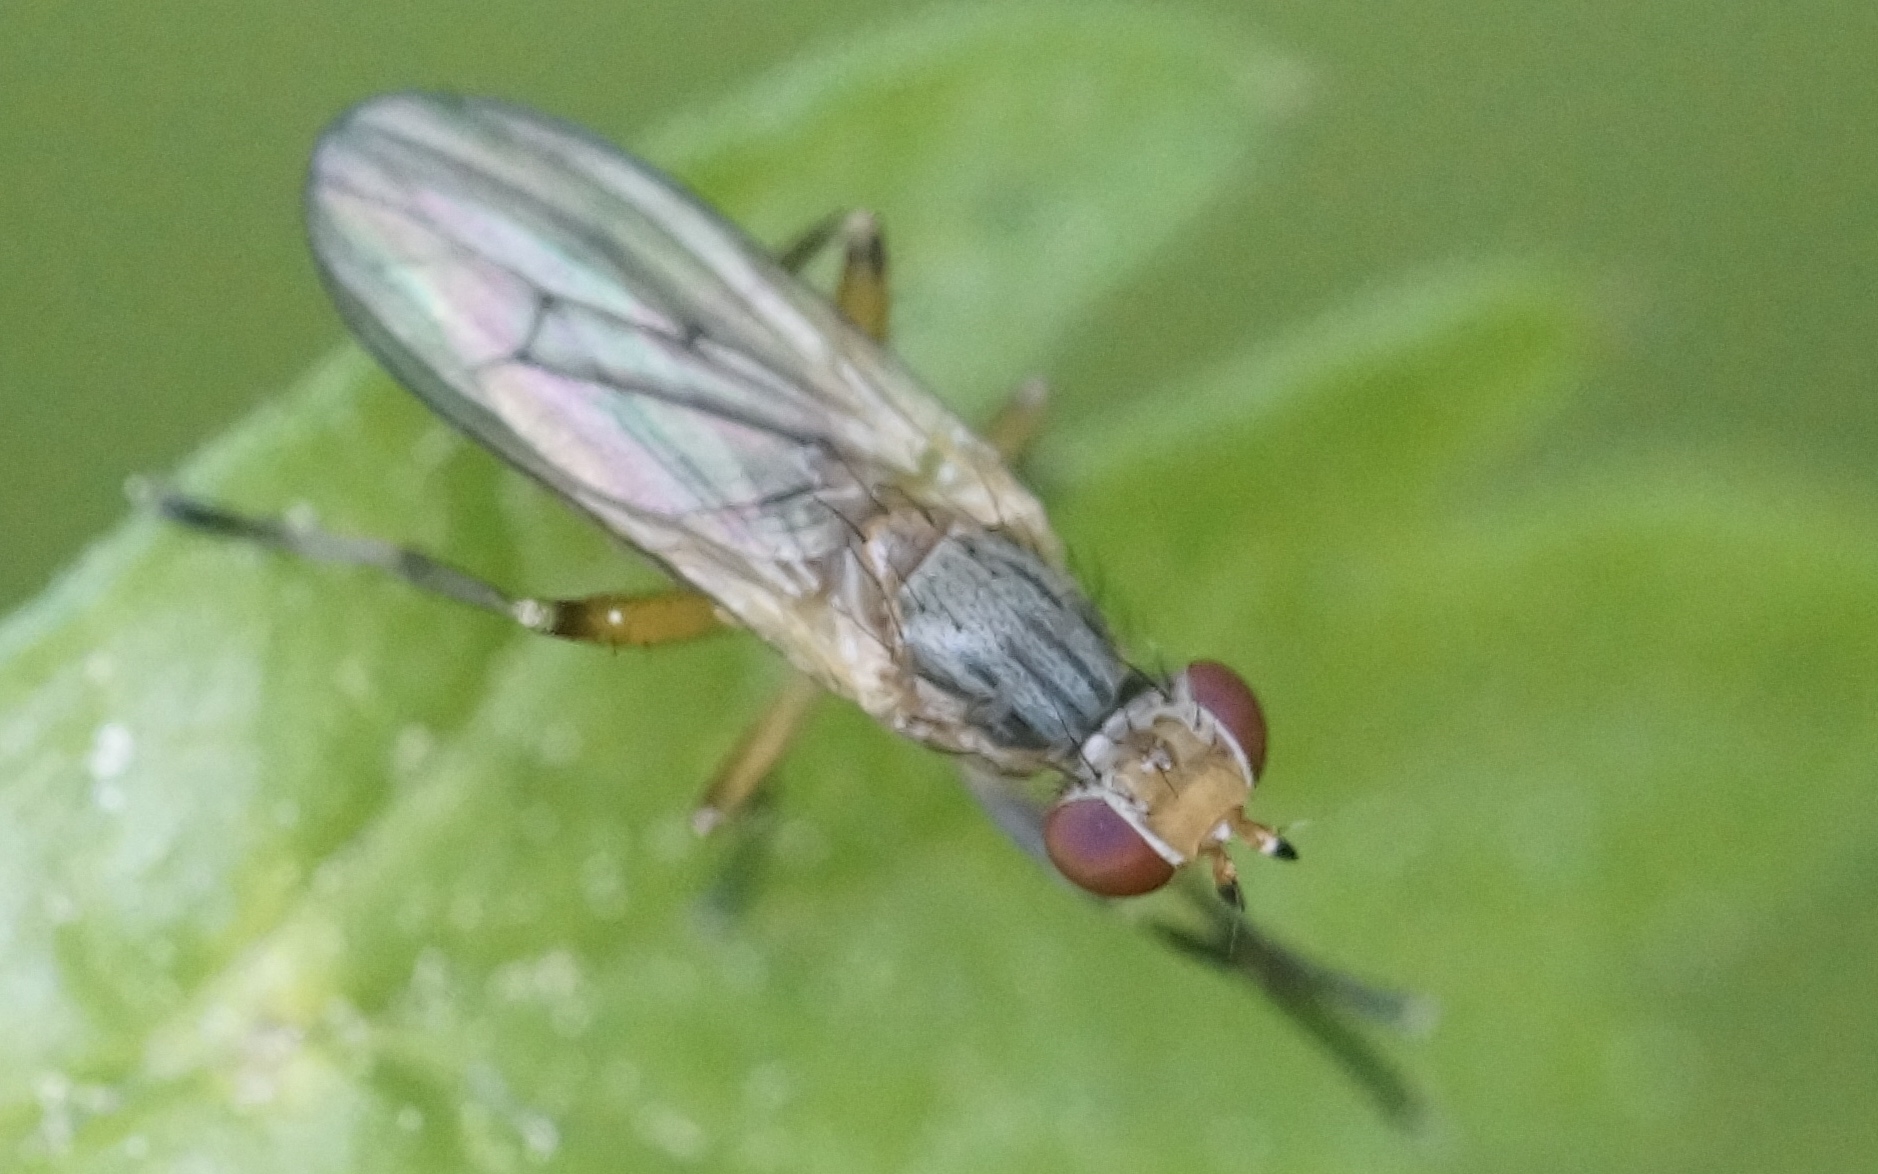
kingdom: Animalia
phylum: Arthropoda
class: Insecta
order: Diptera
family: Sciomyzidae
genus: Pherbellia
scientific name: Pherbellia dubia
